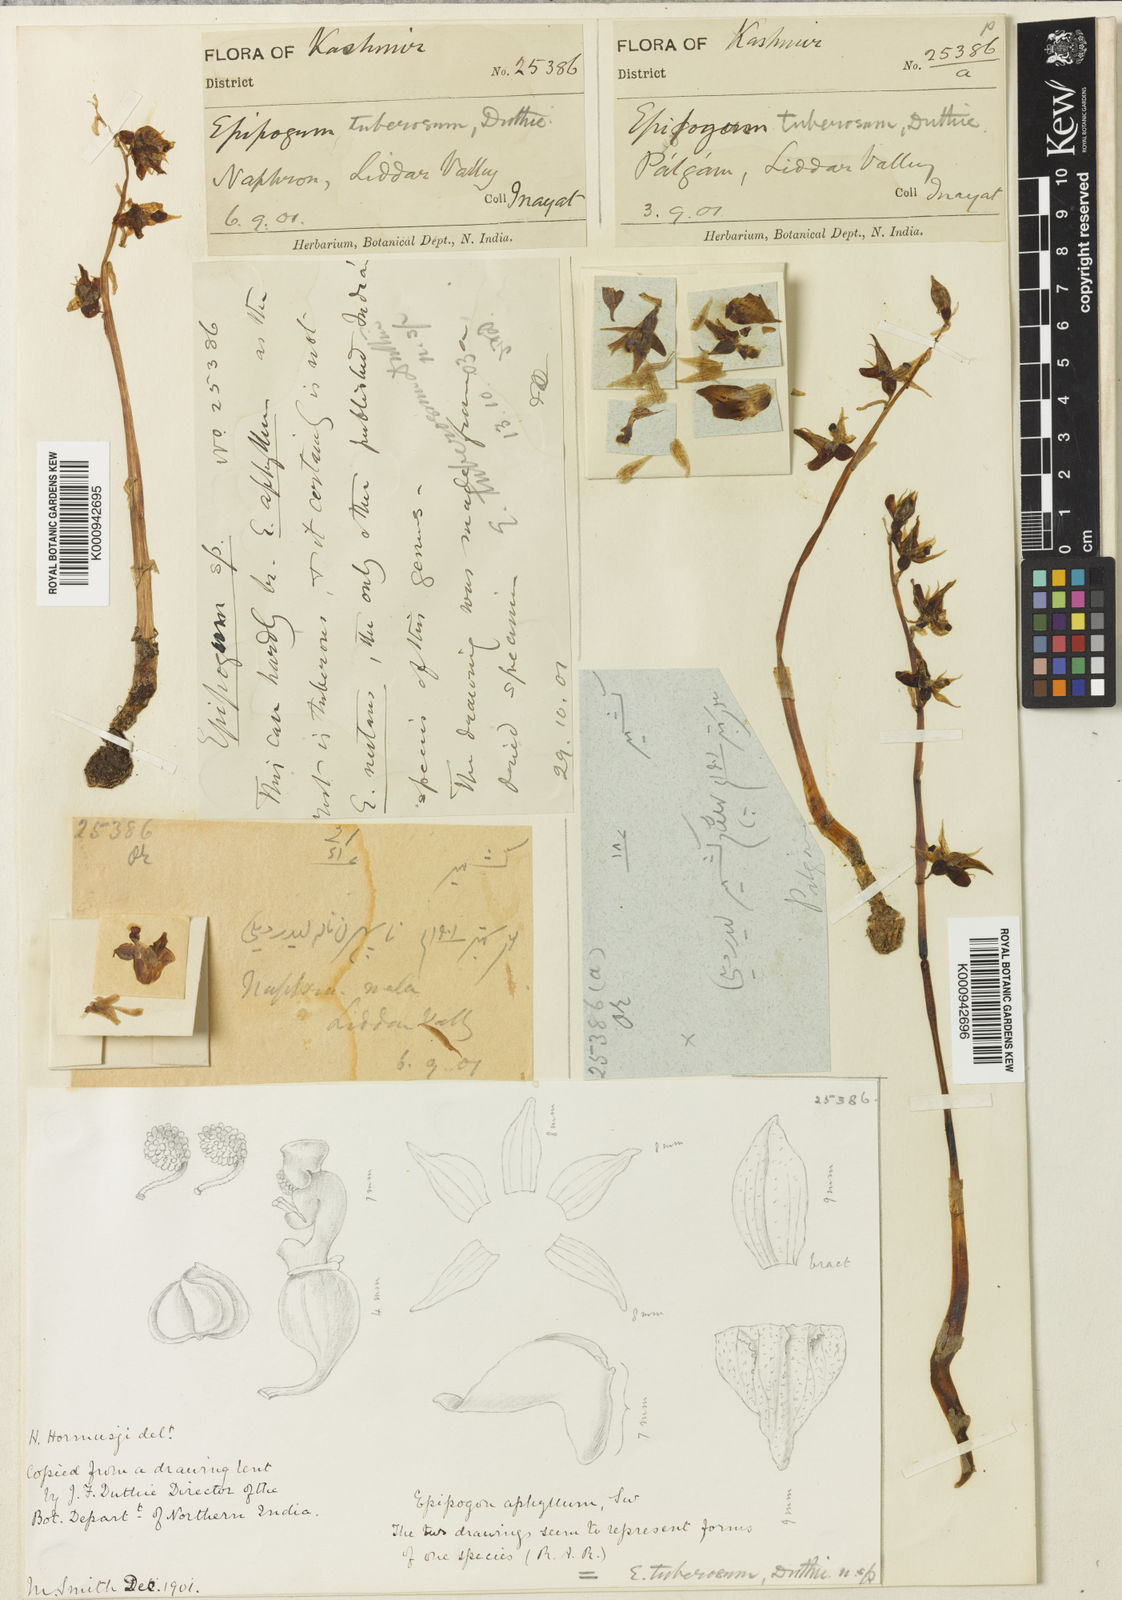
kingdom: Plantae
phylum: Tracheophyta
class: Liliopsida
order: Asparagales
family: Orchidaceae
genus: Epipogium
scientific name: Epipogium roseum
